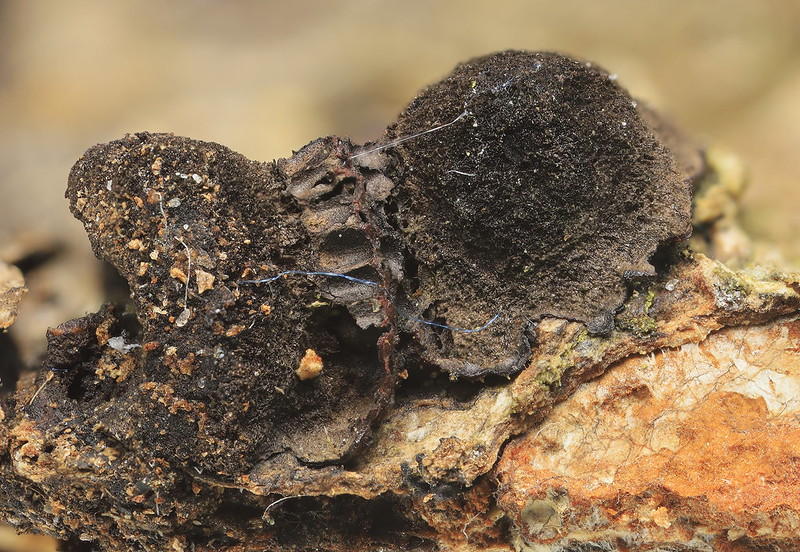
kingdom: Fungi
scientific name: Fungi
